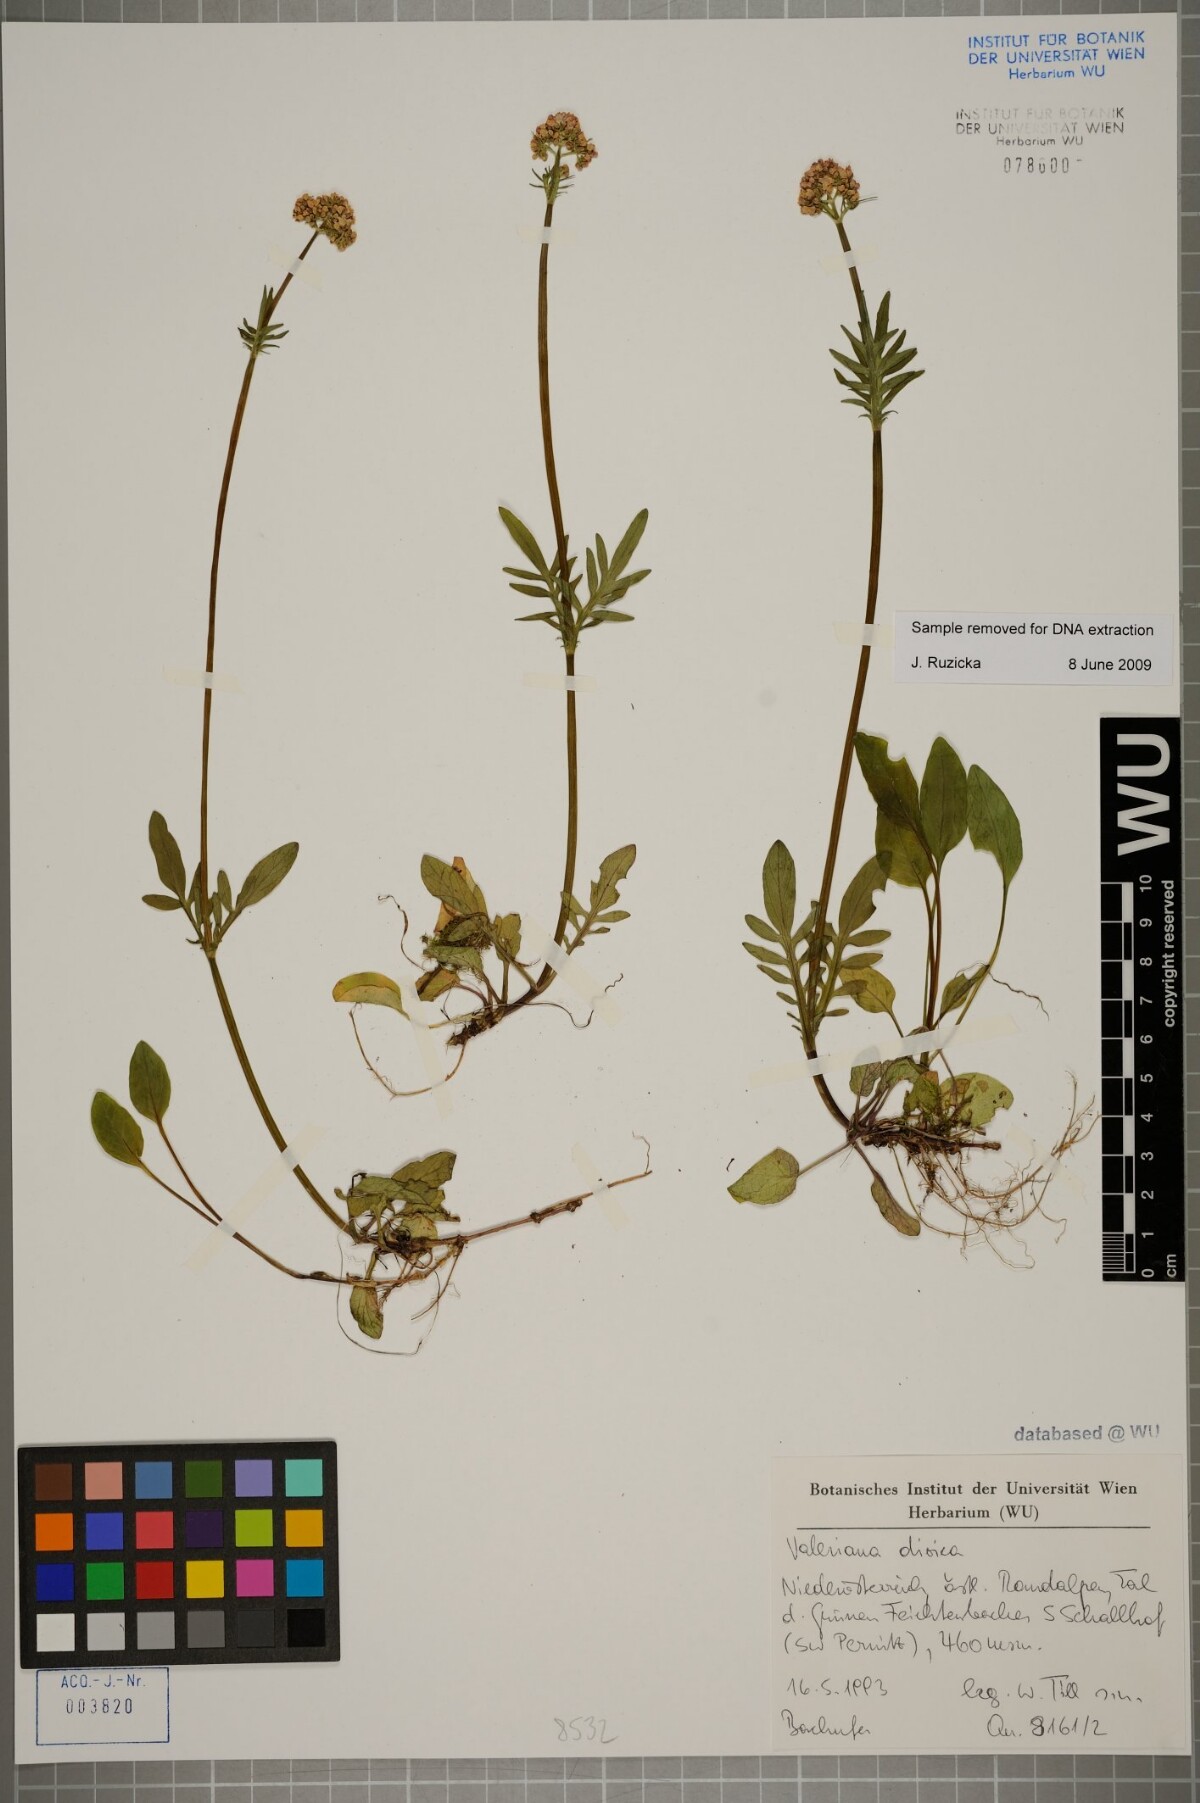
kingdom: Plantae
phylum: Tracheophyta
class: Magnoliopsida
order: Dipsacales
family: Caprifoliaceae
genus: Valeriana
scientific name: Valeriana dioica
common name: Marsh valerian
